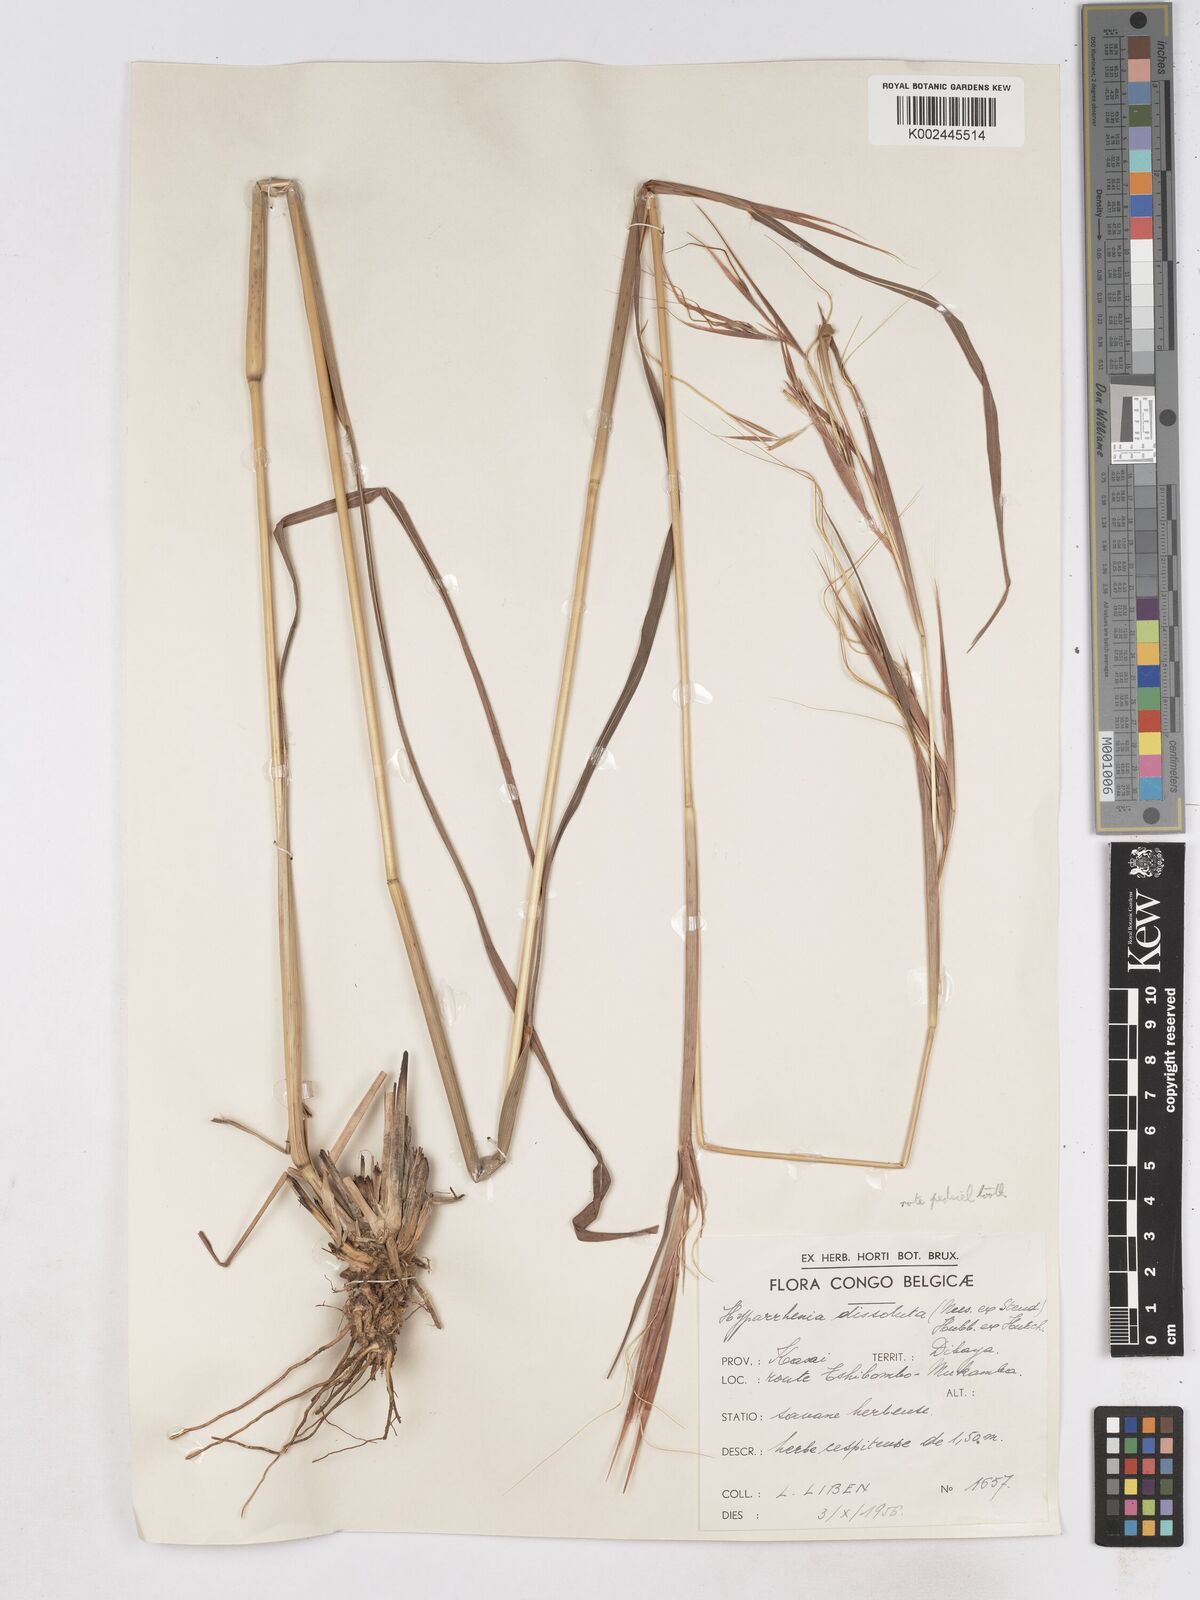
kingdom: Plantae
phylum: Tracheophyta
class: Liliopsida
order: Poales
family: Poaceae
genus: Hyperthelia
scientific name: Hyperthelia dissoluta
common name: Yellow thatching grass
